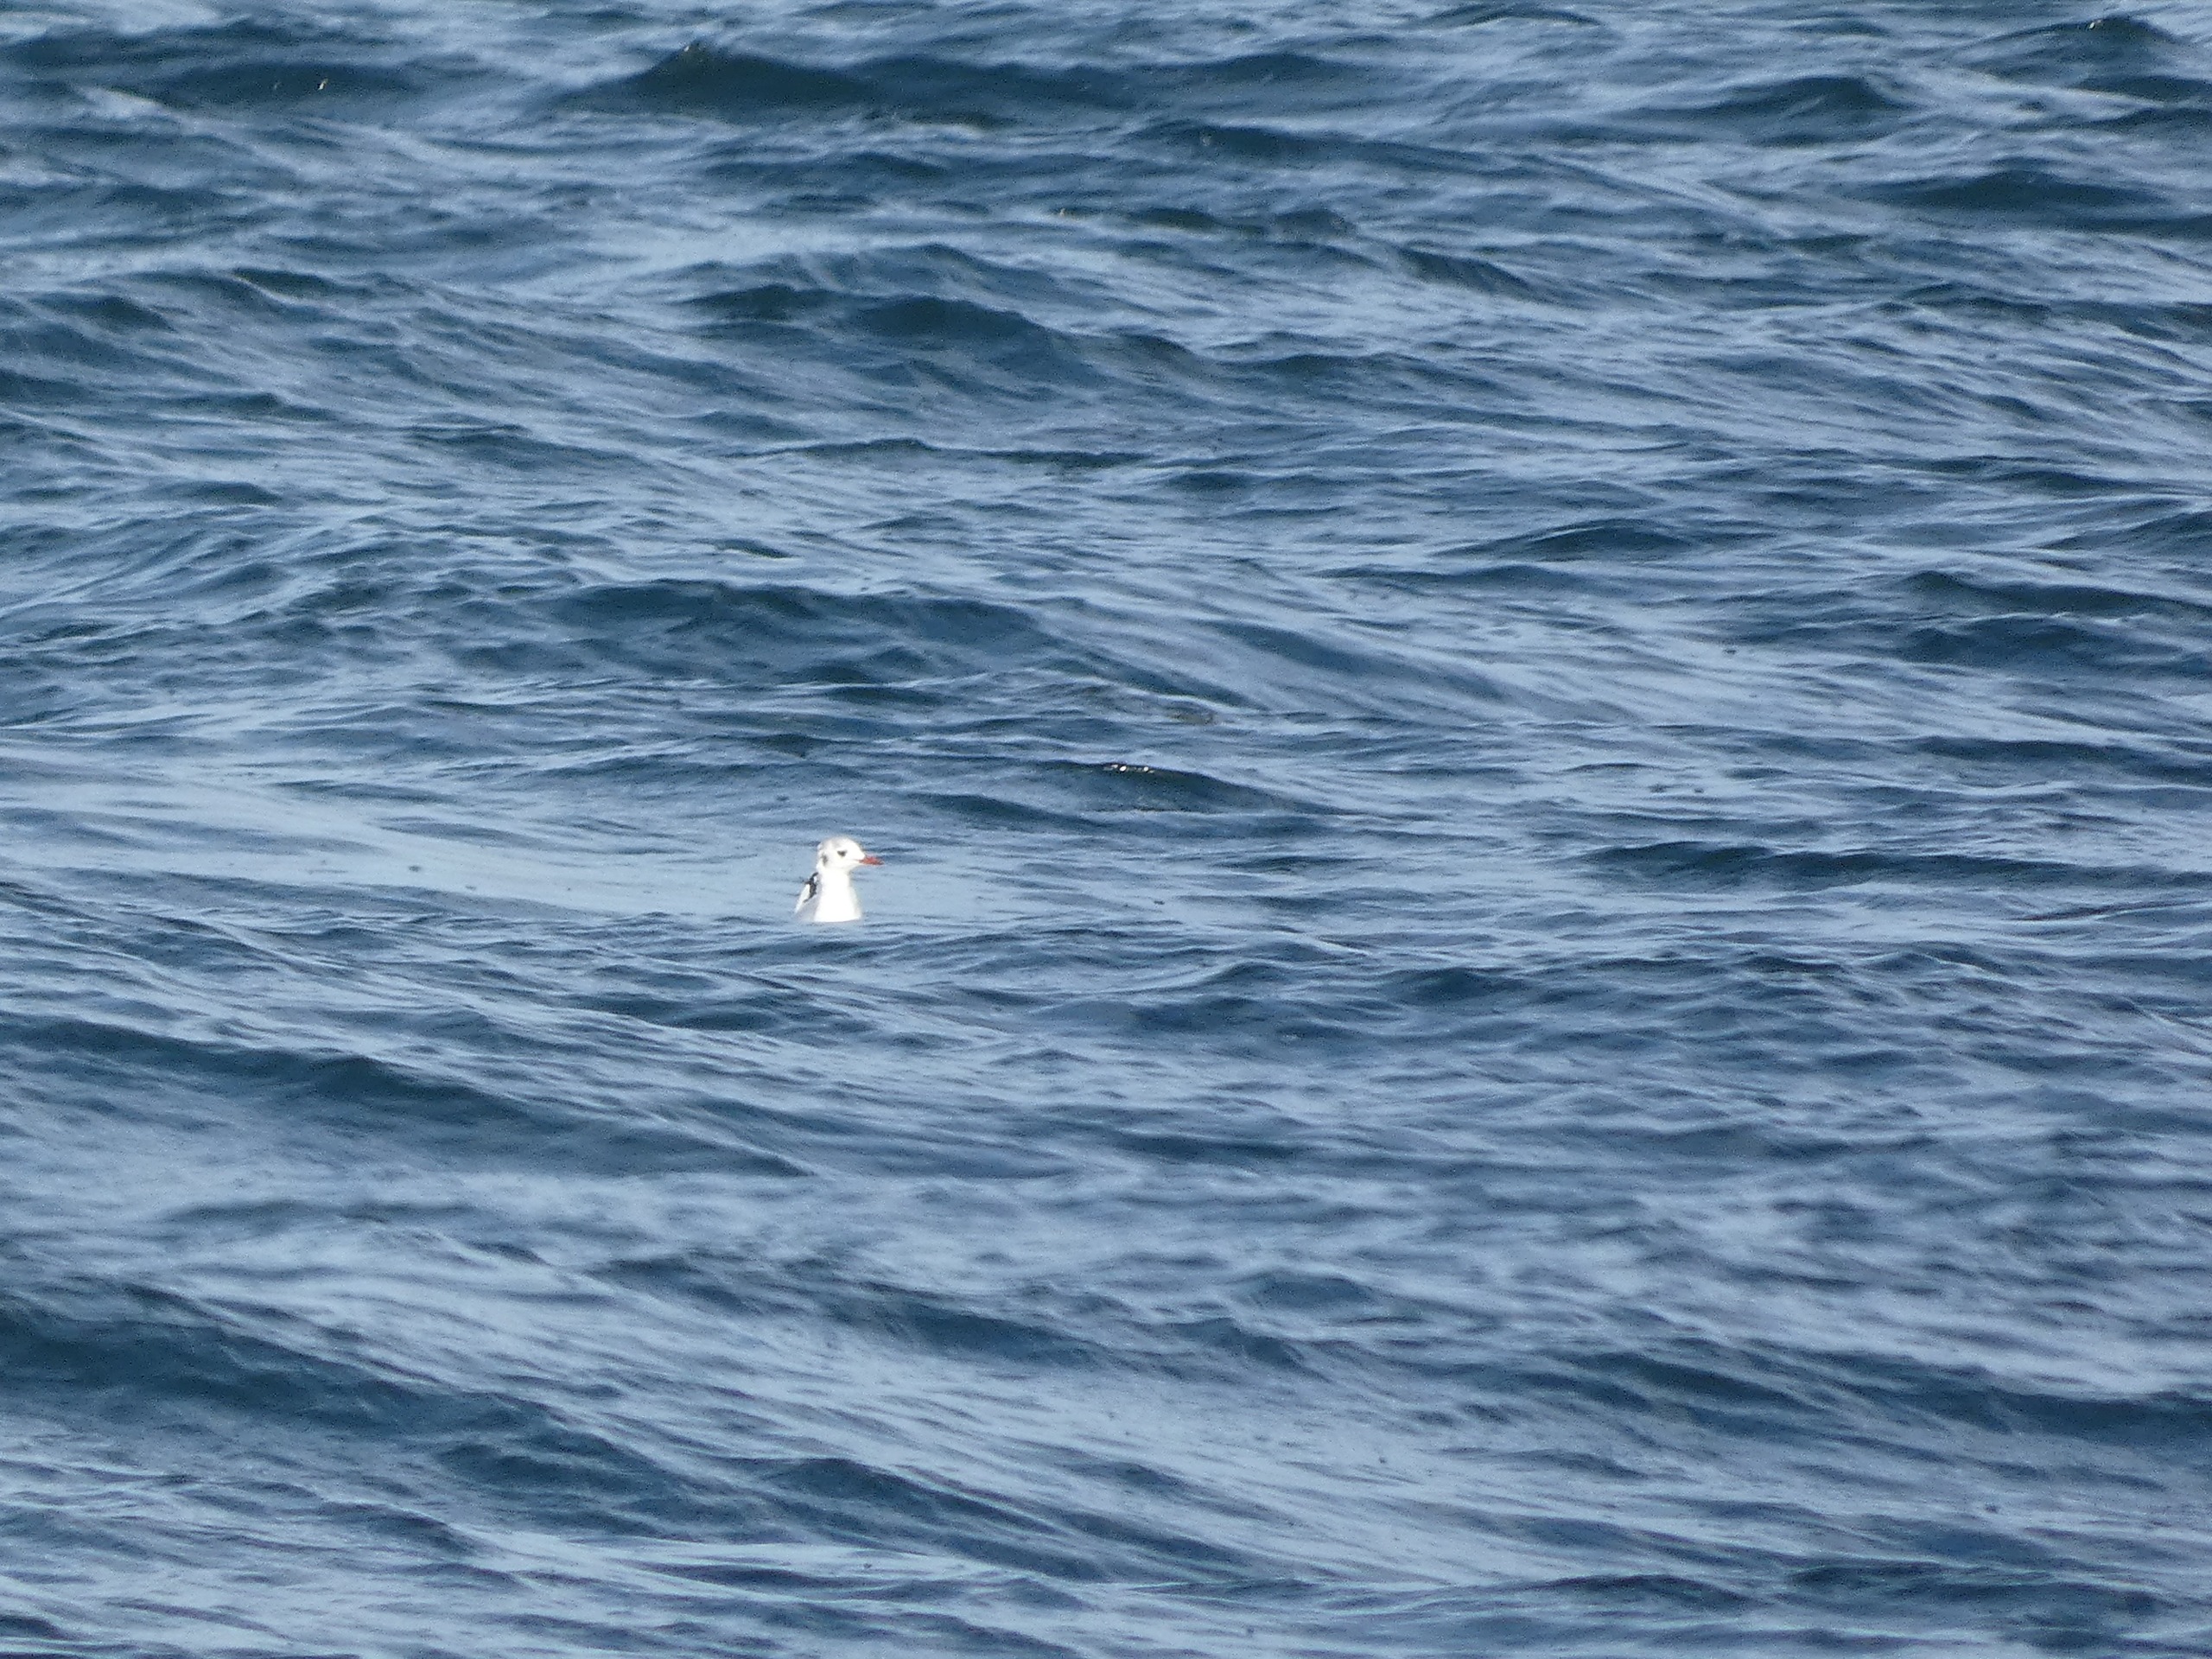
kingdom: Animalia
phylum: Chordata
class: Aves
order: Charadriiformes
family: Laridae
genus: Chroicocephalus
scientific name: Chroicocephalus ridibundus
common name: Hættemåge
